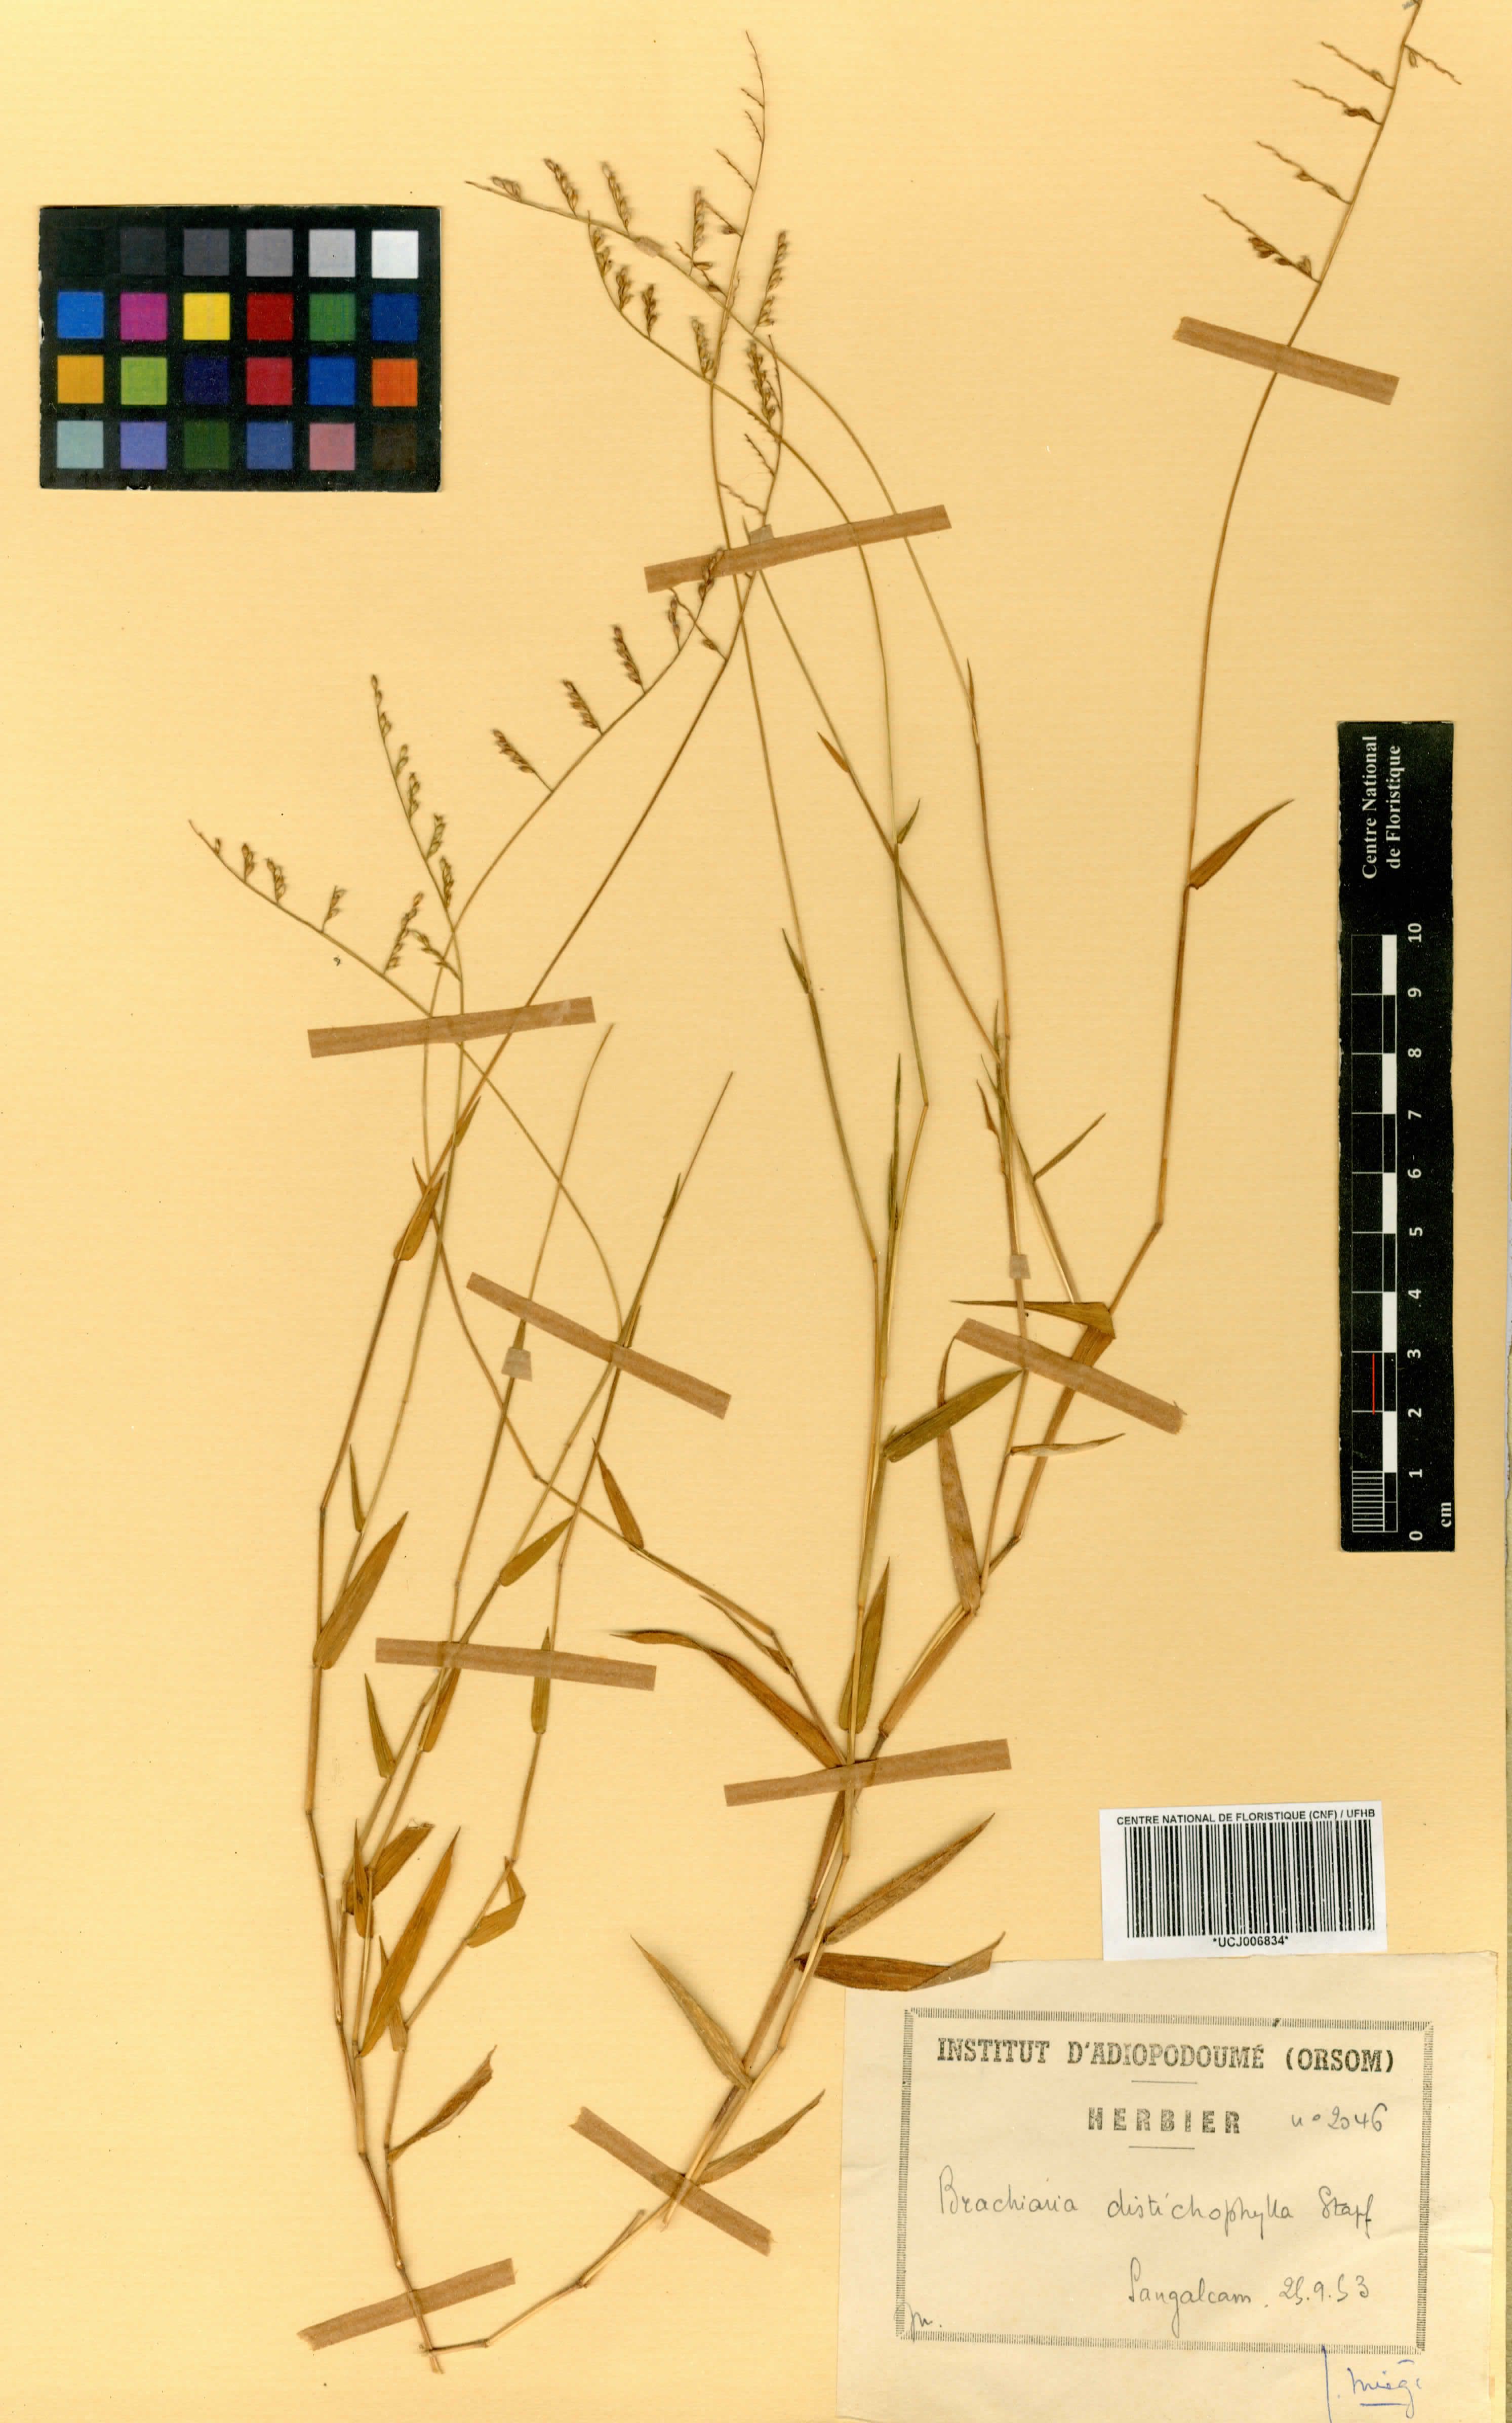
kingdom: Plantae
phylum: Tracheophyta
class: Liliopsida
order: Poales
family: Poaceae
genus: Urochloa
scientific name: Urochloa villosa
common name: Hairy signalgrass
